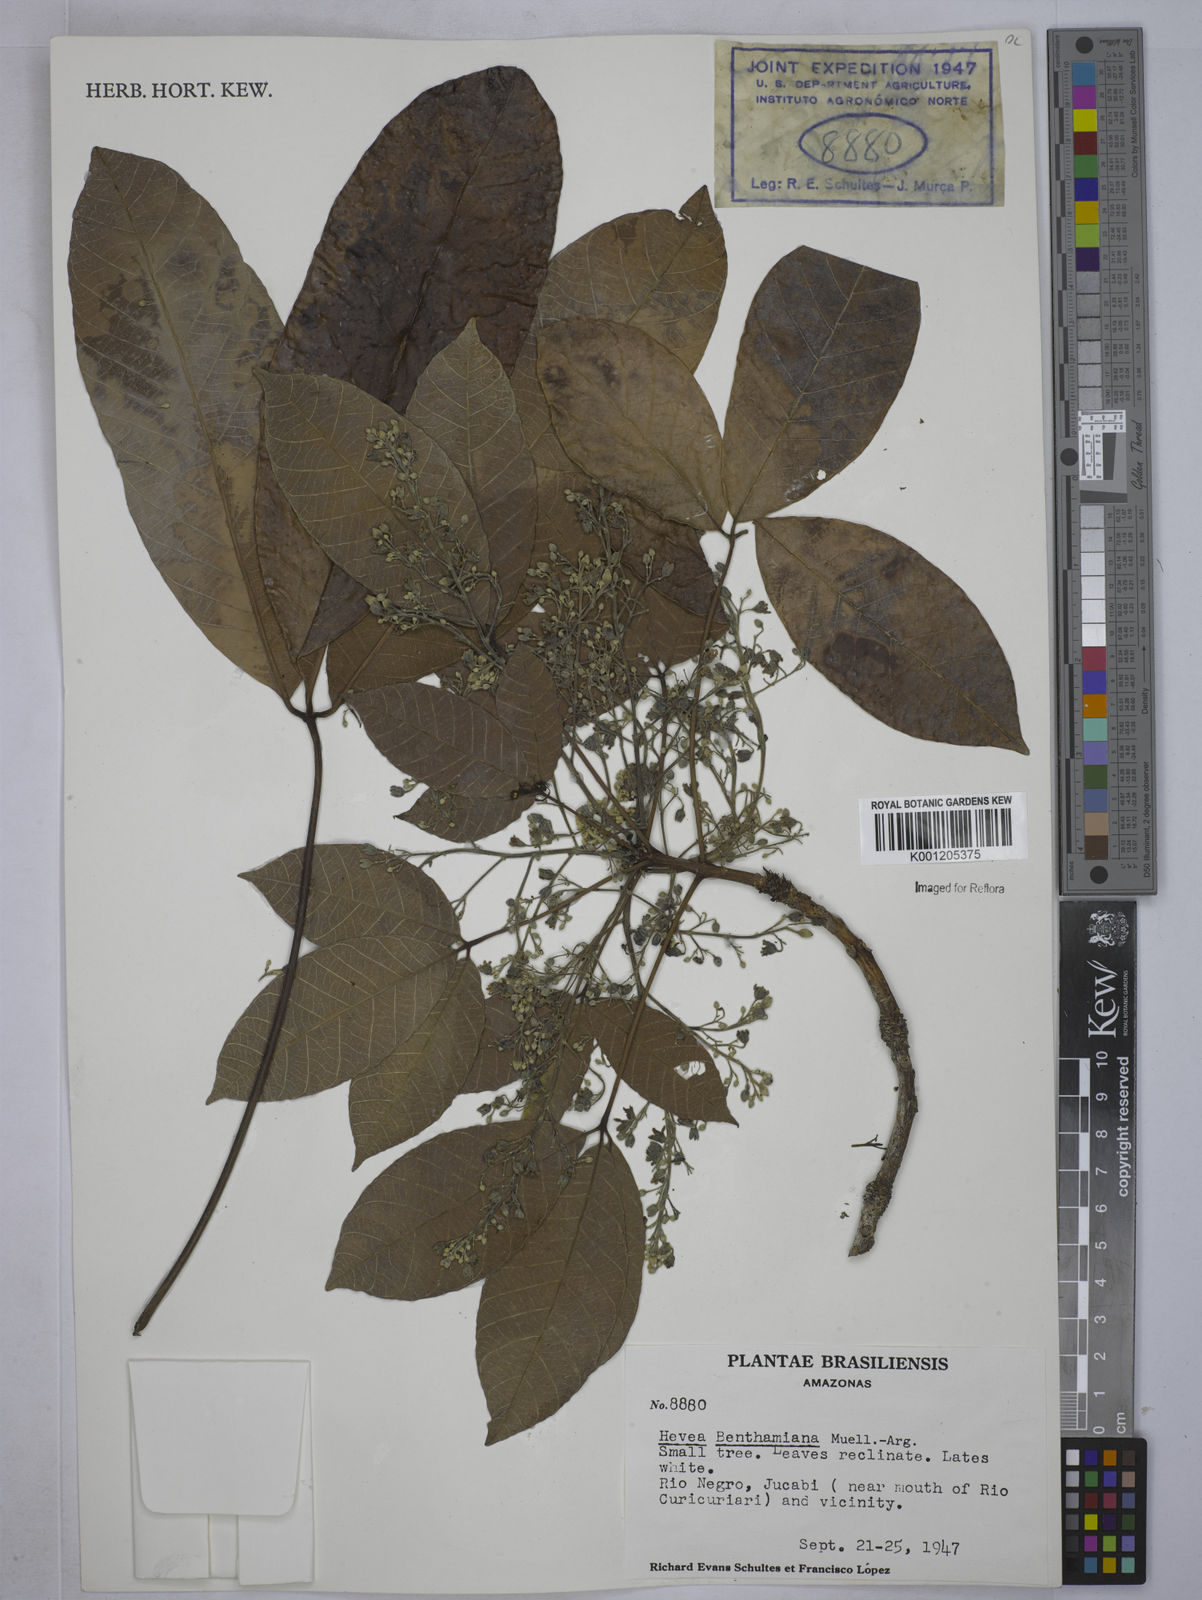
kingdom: Plantae
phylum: Tracheophyta
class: Magnoliopsida
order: Malpighiales
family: Euphorbiaceae
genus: Hevea
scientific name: Hevea
